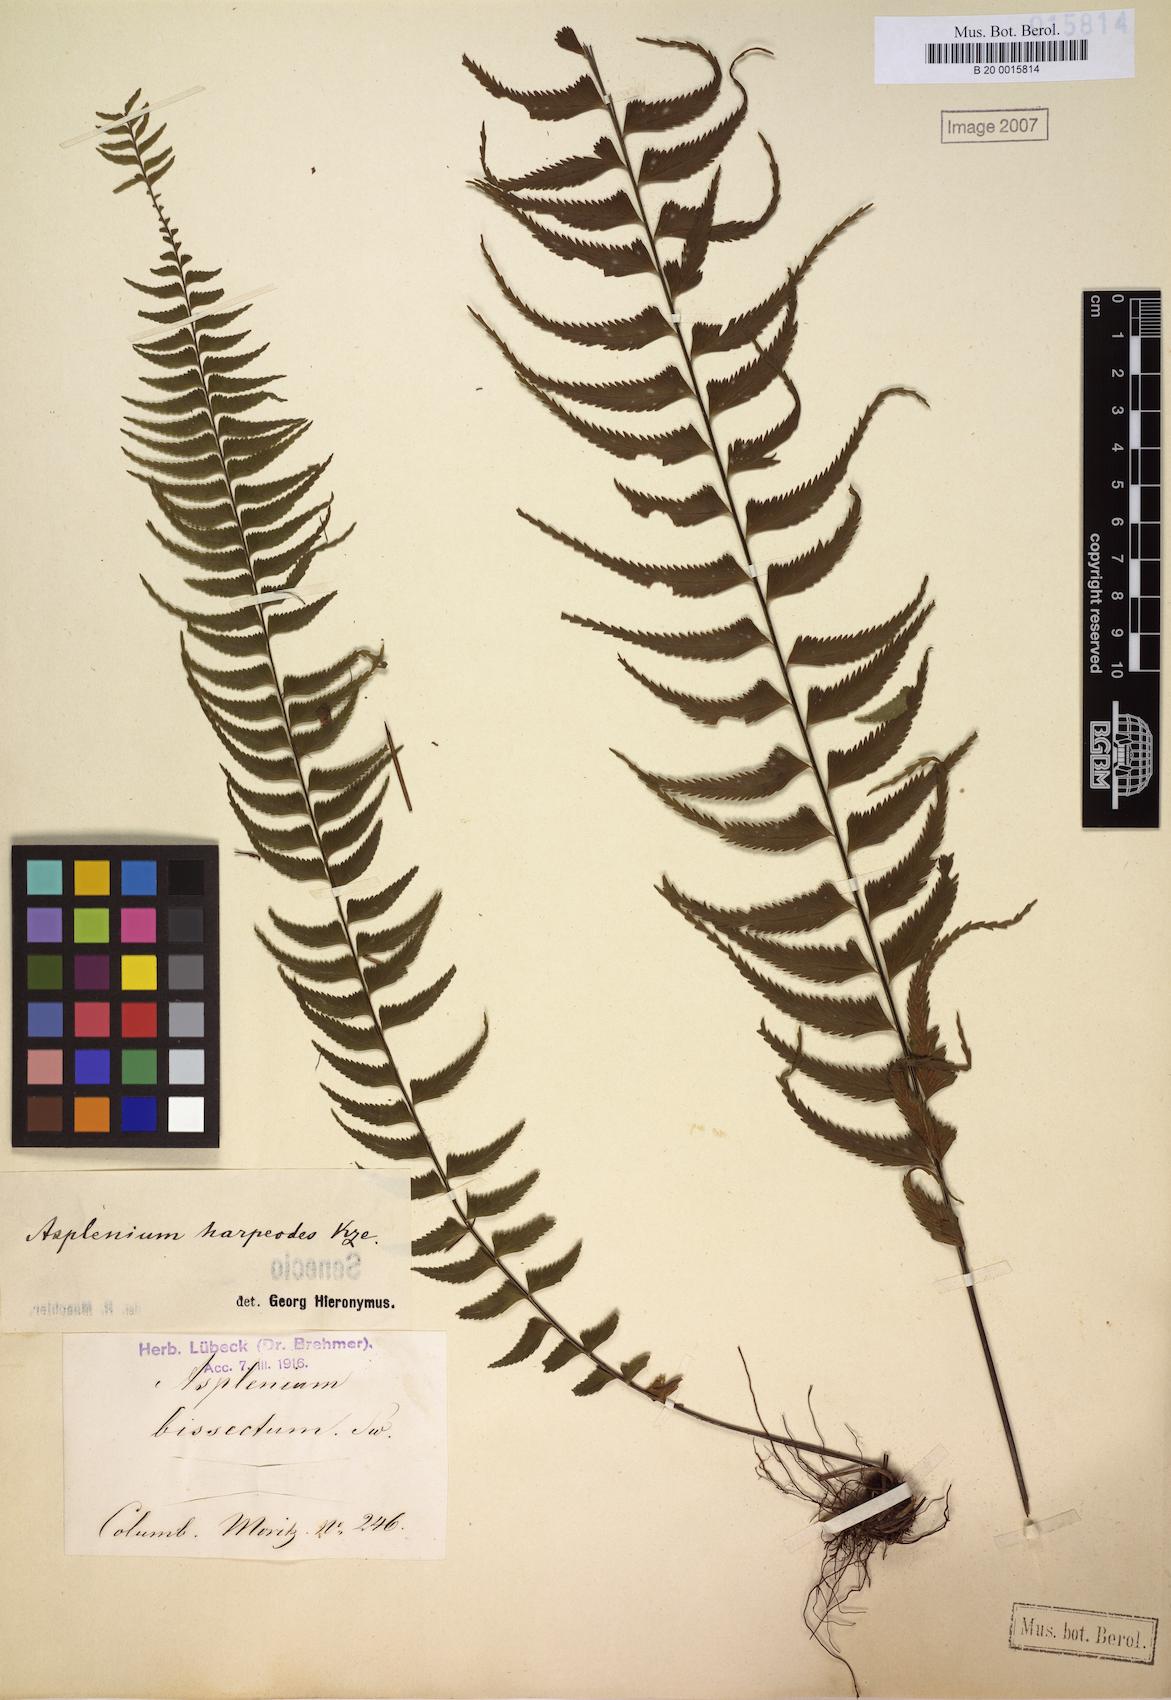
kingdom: Plantae
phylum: Tracheophyta
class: Polypodiopsida
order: Polypodiales
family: Aspleniaceae
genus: Asplenium
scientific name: Asplenium harpeodes
